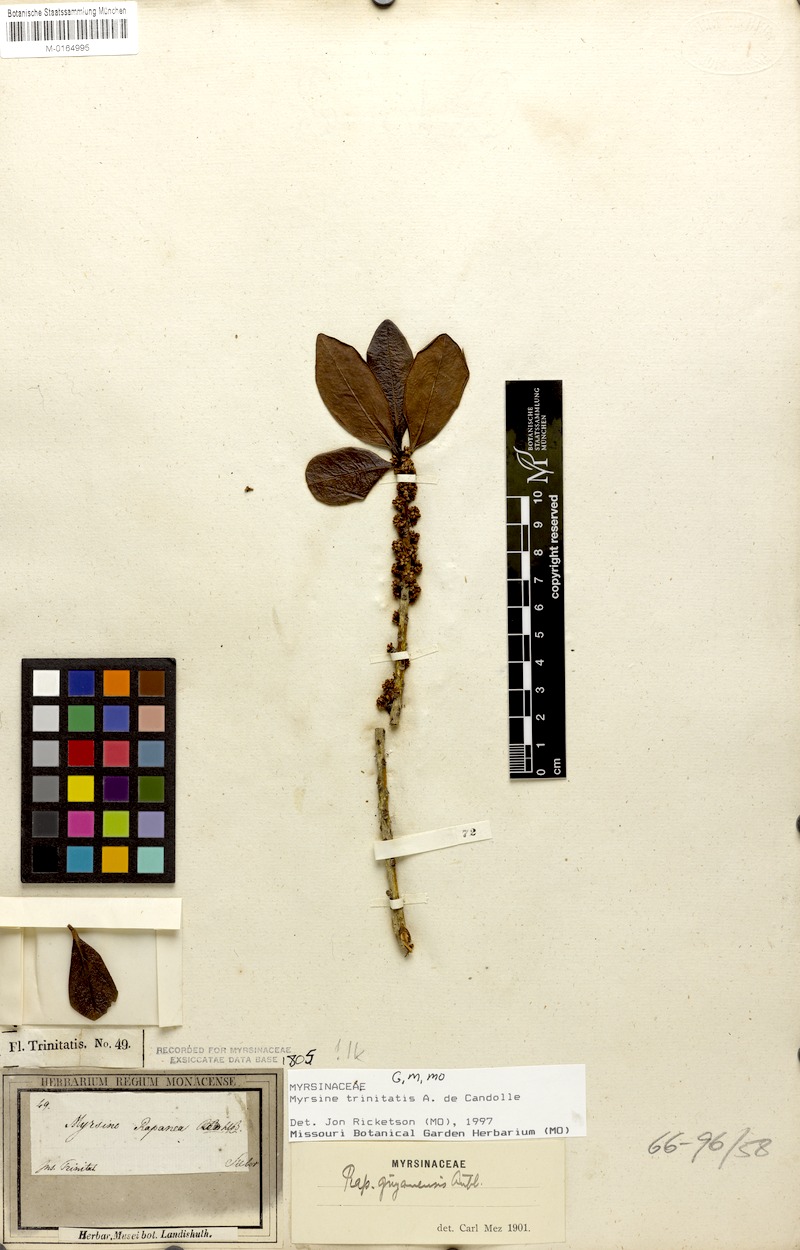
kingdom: Plantae
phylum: Tracheophyta
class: Magnoliopsida
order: Ericales
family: Primulaceae
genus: Myrsine
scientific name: Myrsine umbellata
